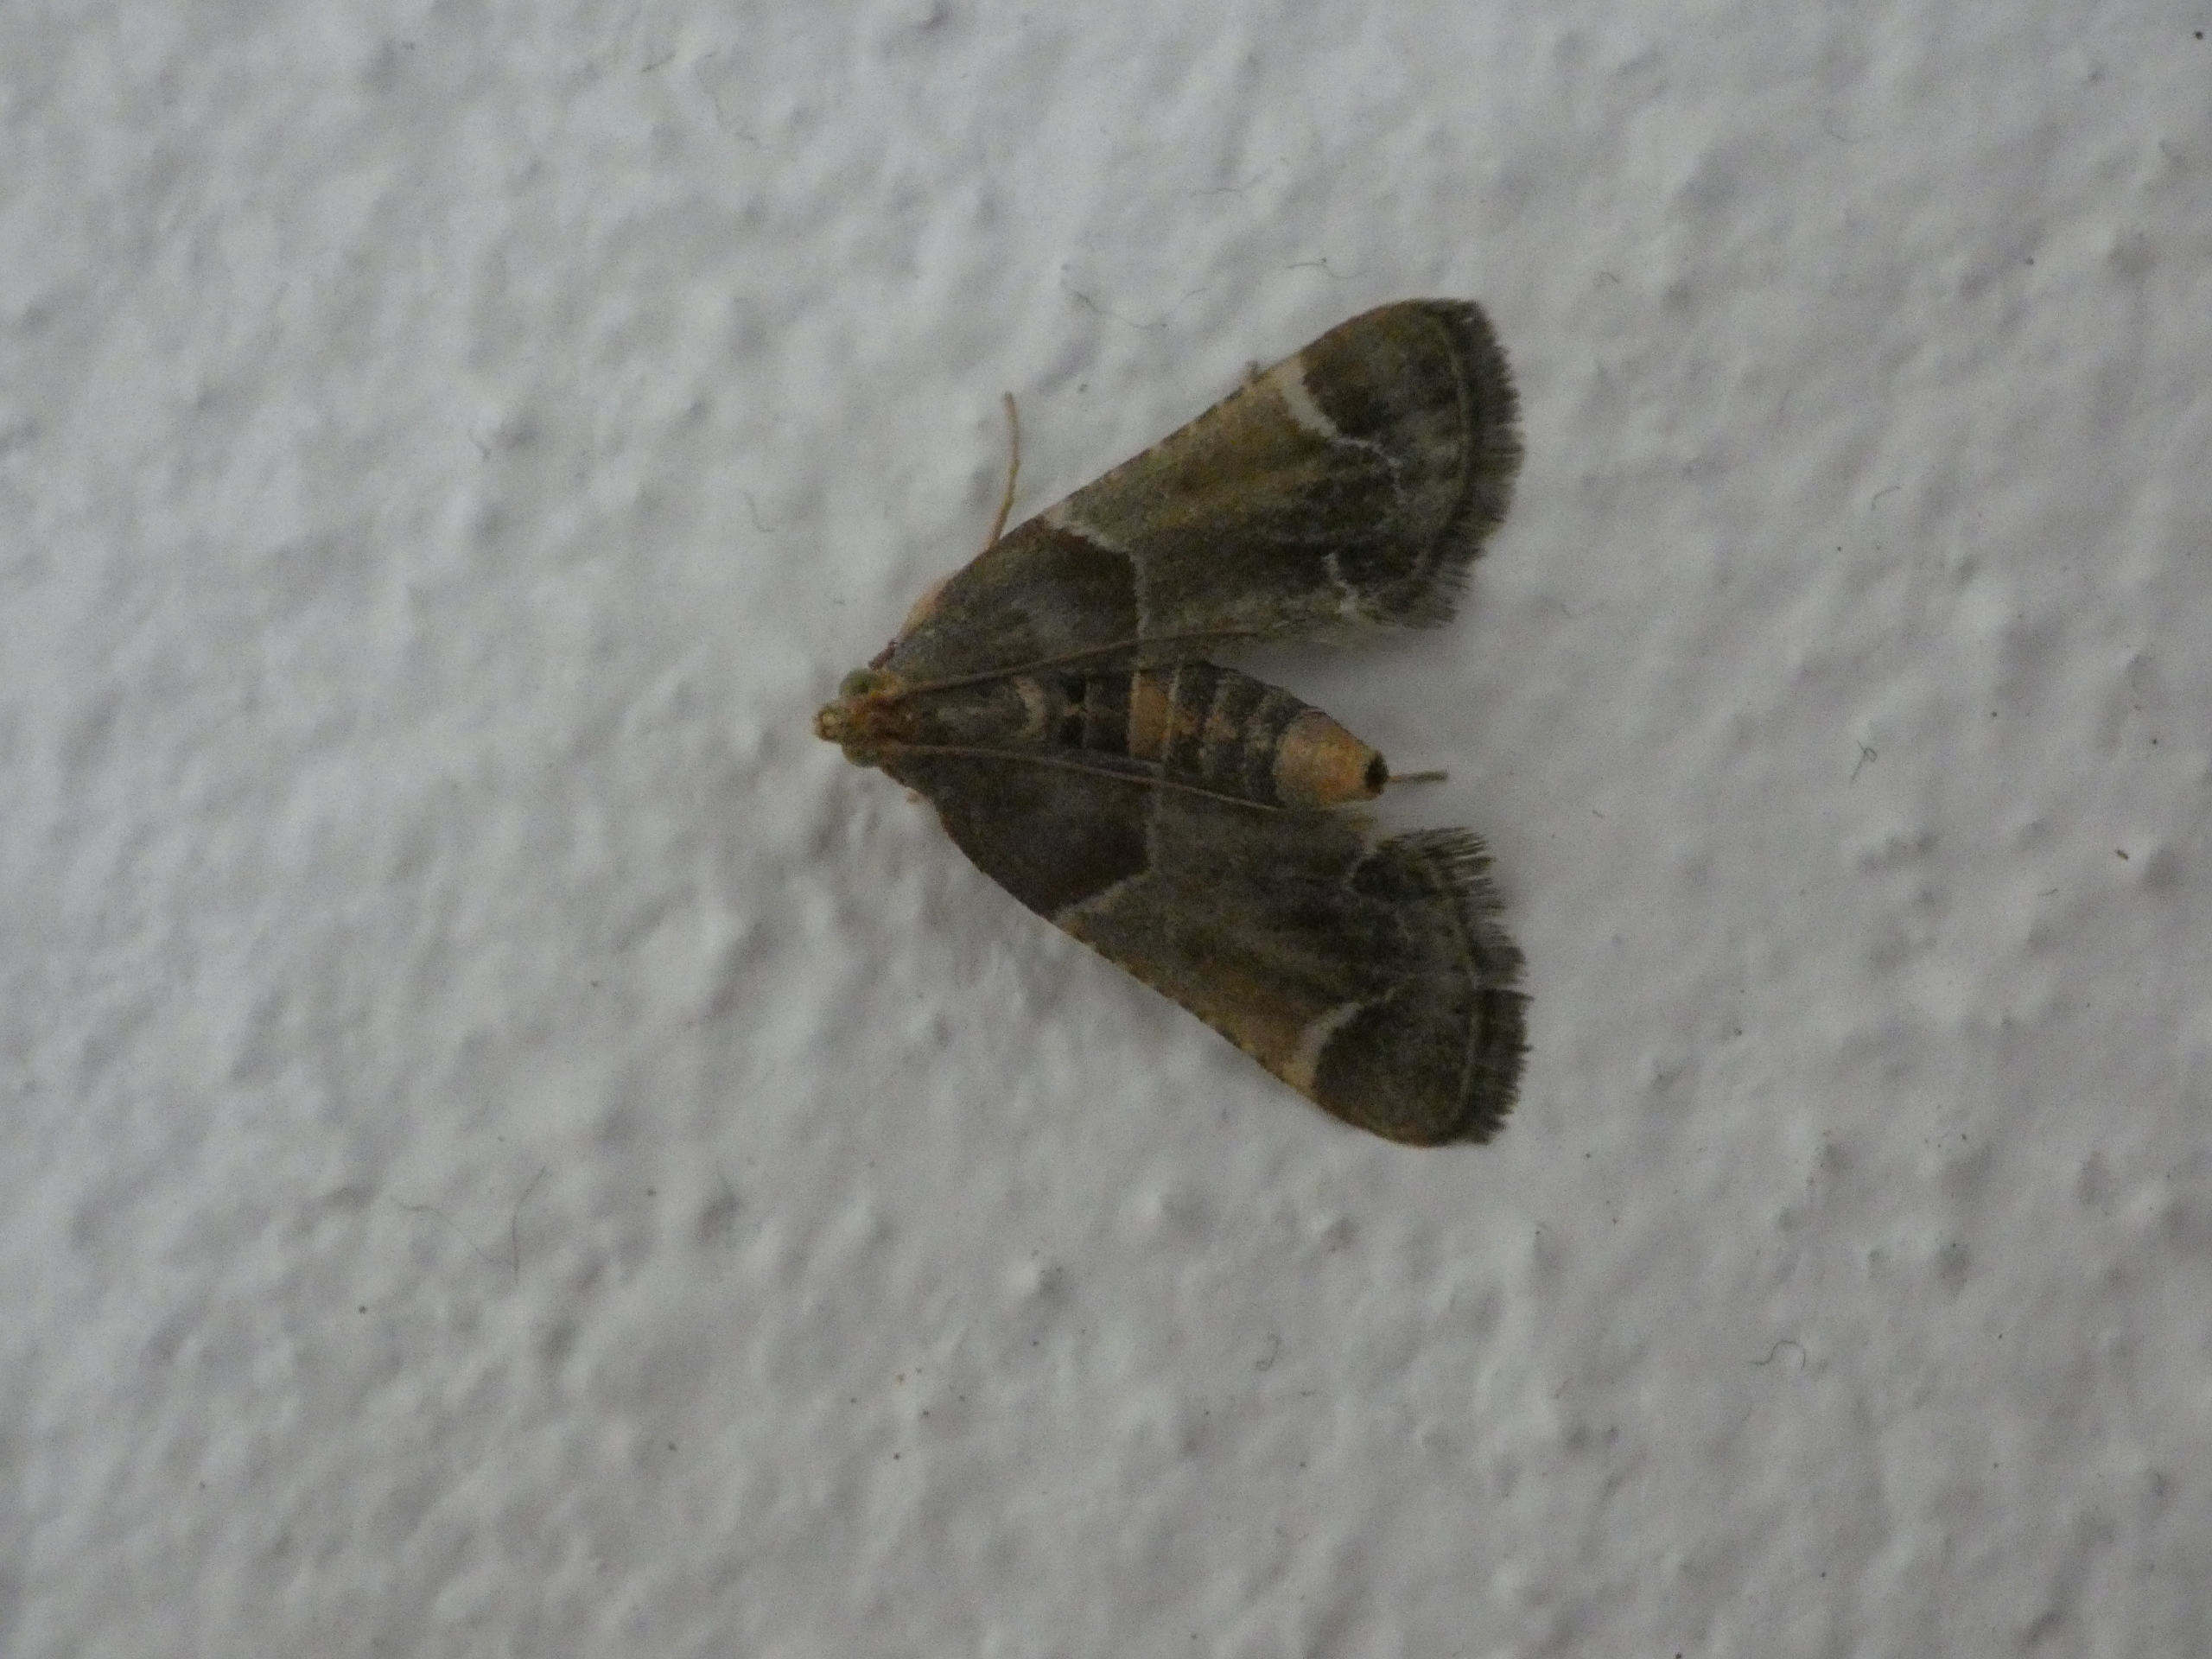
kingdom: Animalia
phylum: Arthropoda
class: Insecta
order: Lepidoptera
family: Pyralidae
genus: Pyralis
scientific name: Pyralis farinalis
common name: Stort melmøl
